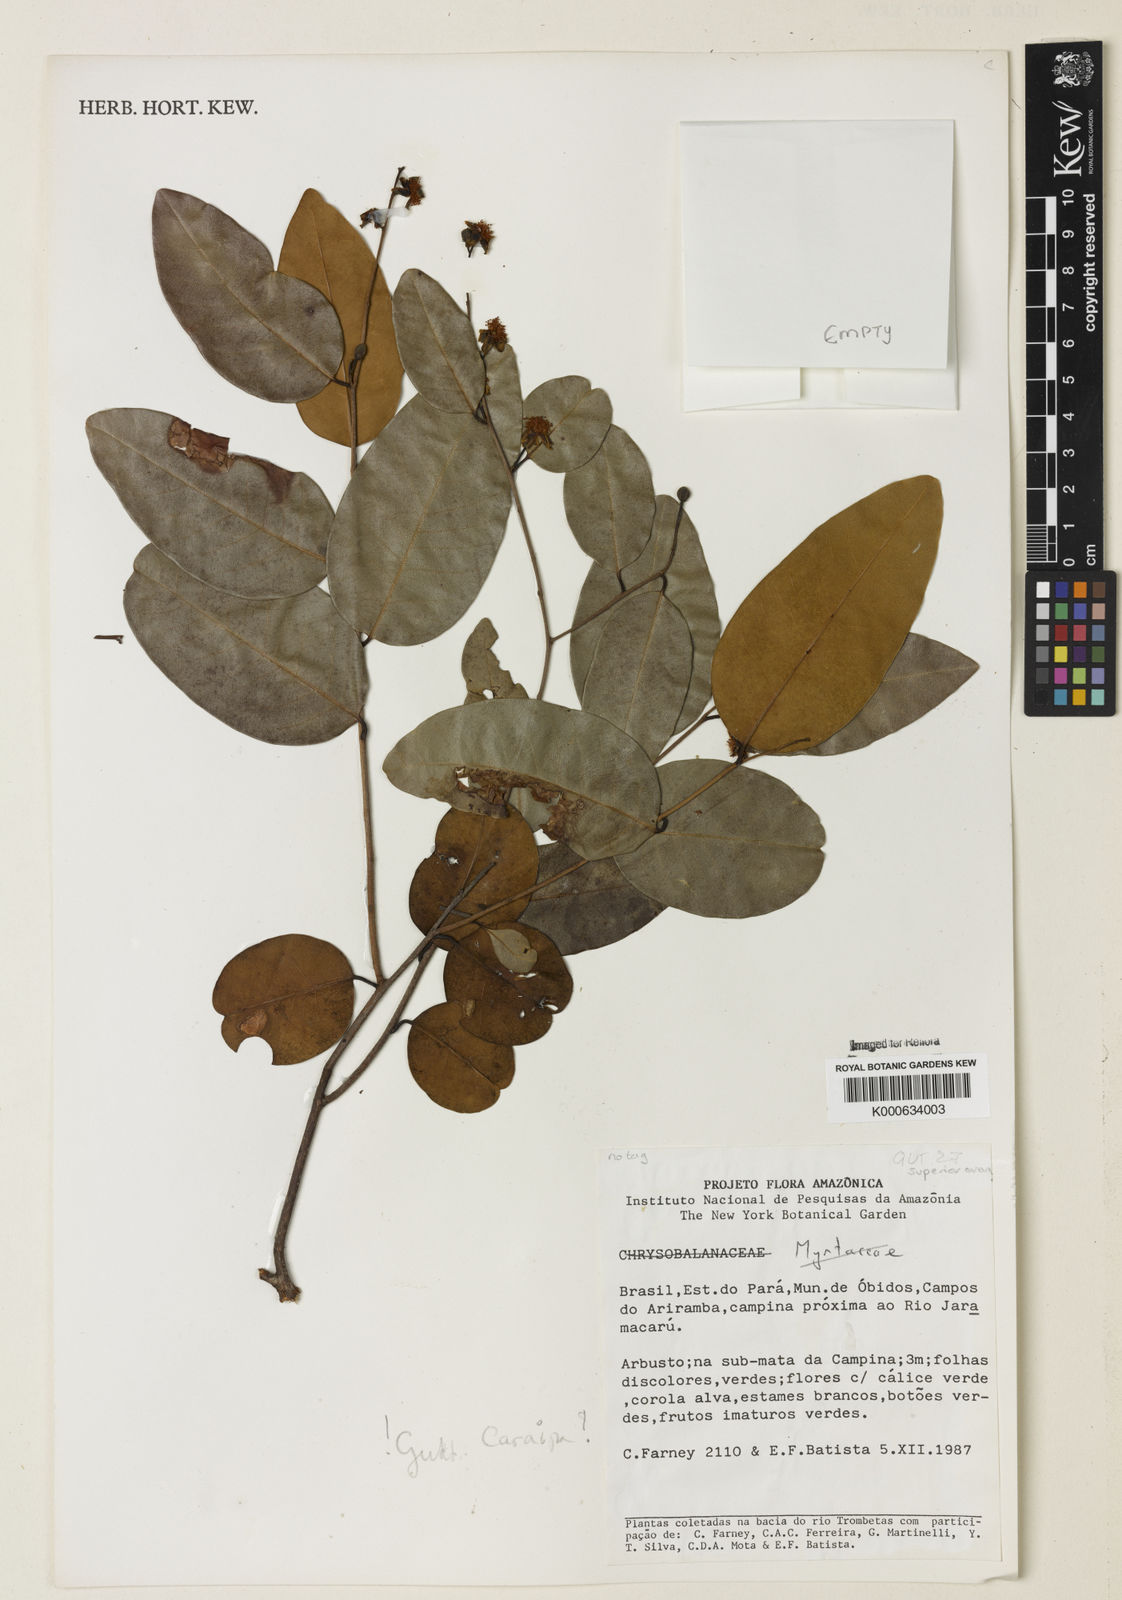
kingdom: Plantae
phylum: Tracheophyta
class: Magnoliopsida
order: Malpighiales
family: Calophyllaceae
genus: Caraipa
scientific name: Caraipa foveolata
